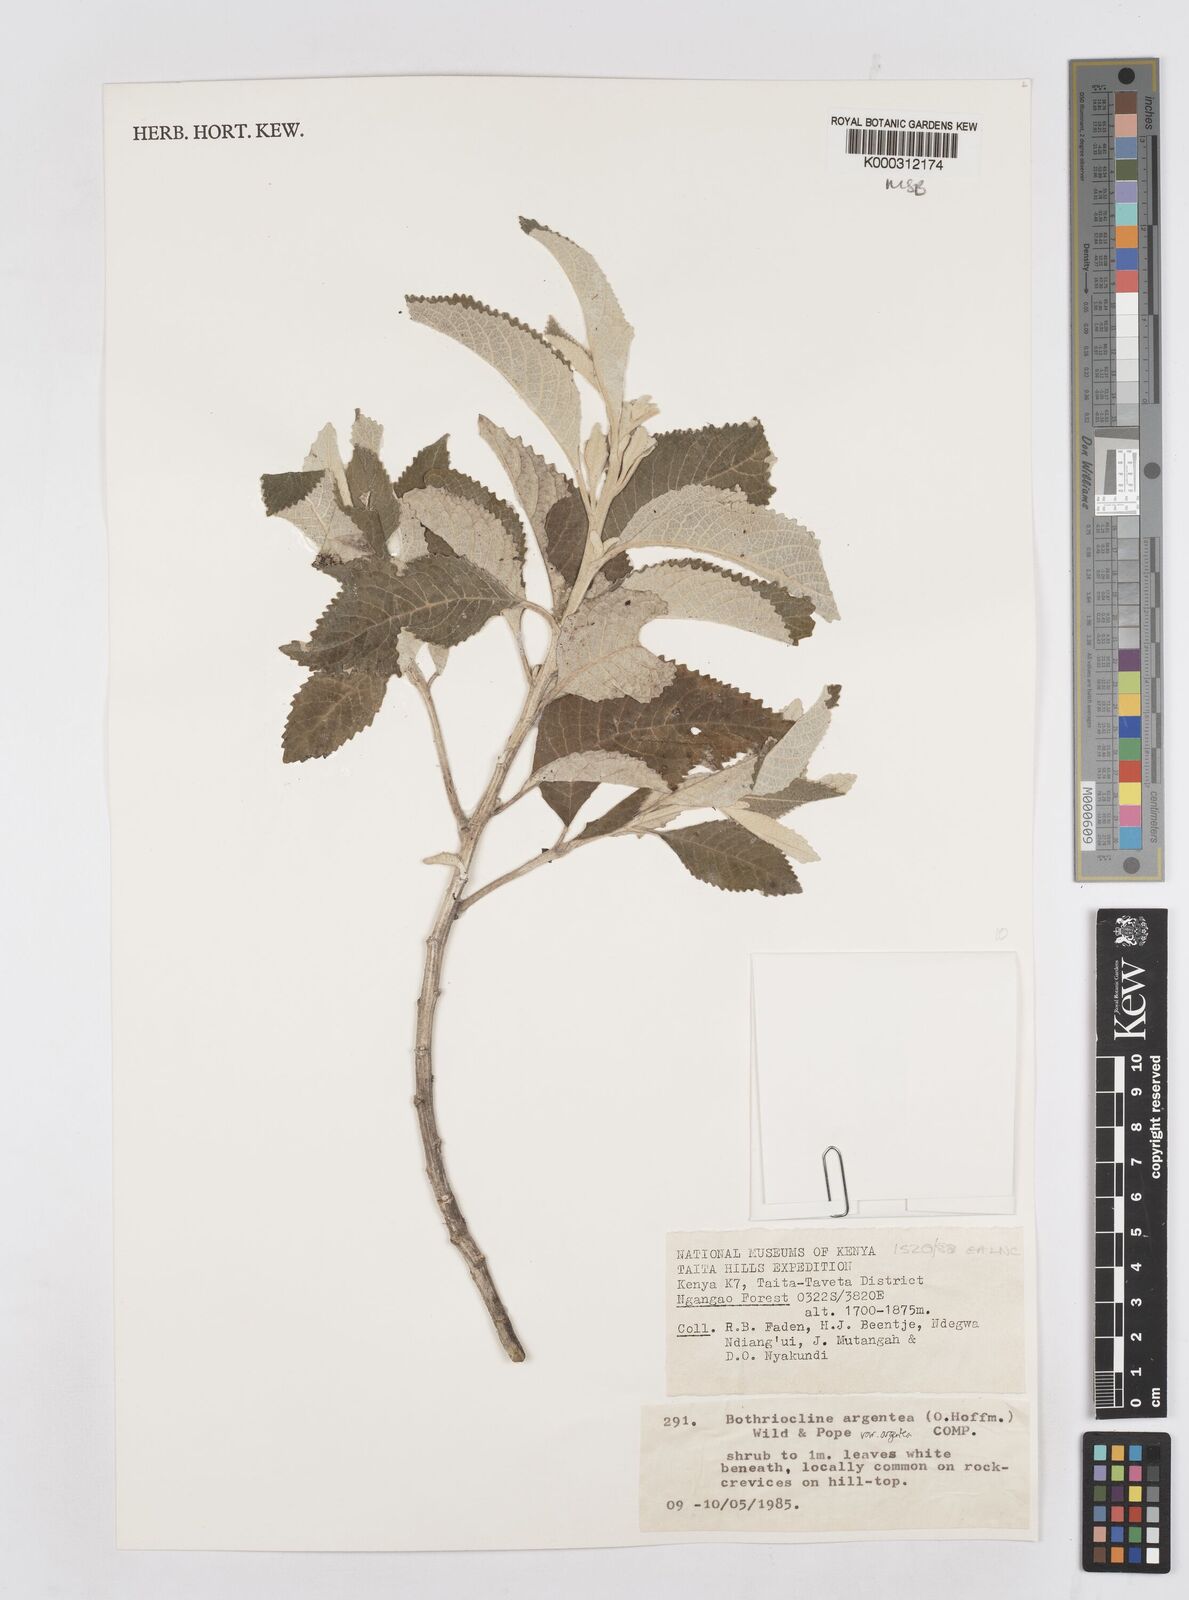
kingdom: Plantae
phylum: Tracheophyta
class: Magnoliopsida
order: Asterales
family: Asteraceae
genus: Bothriocline
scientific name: Bothriocline argentea
